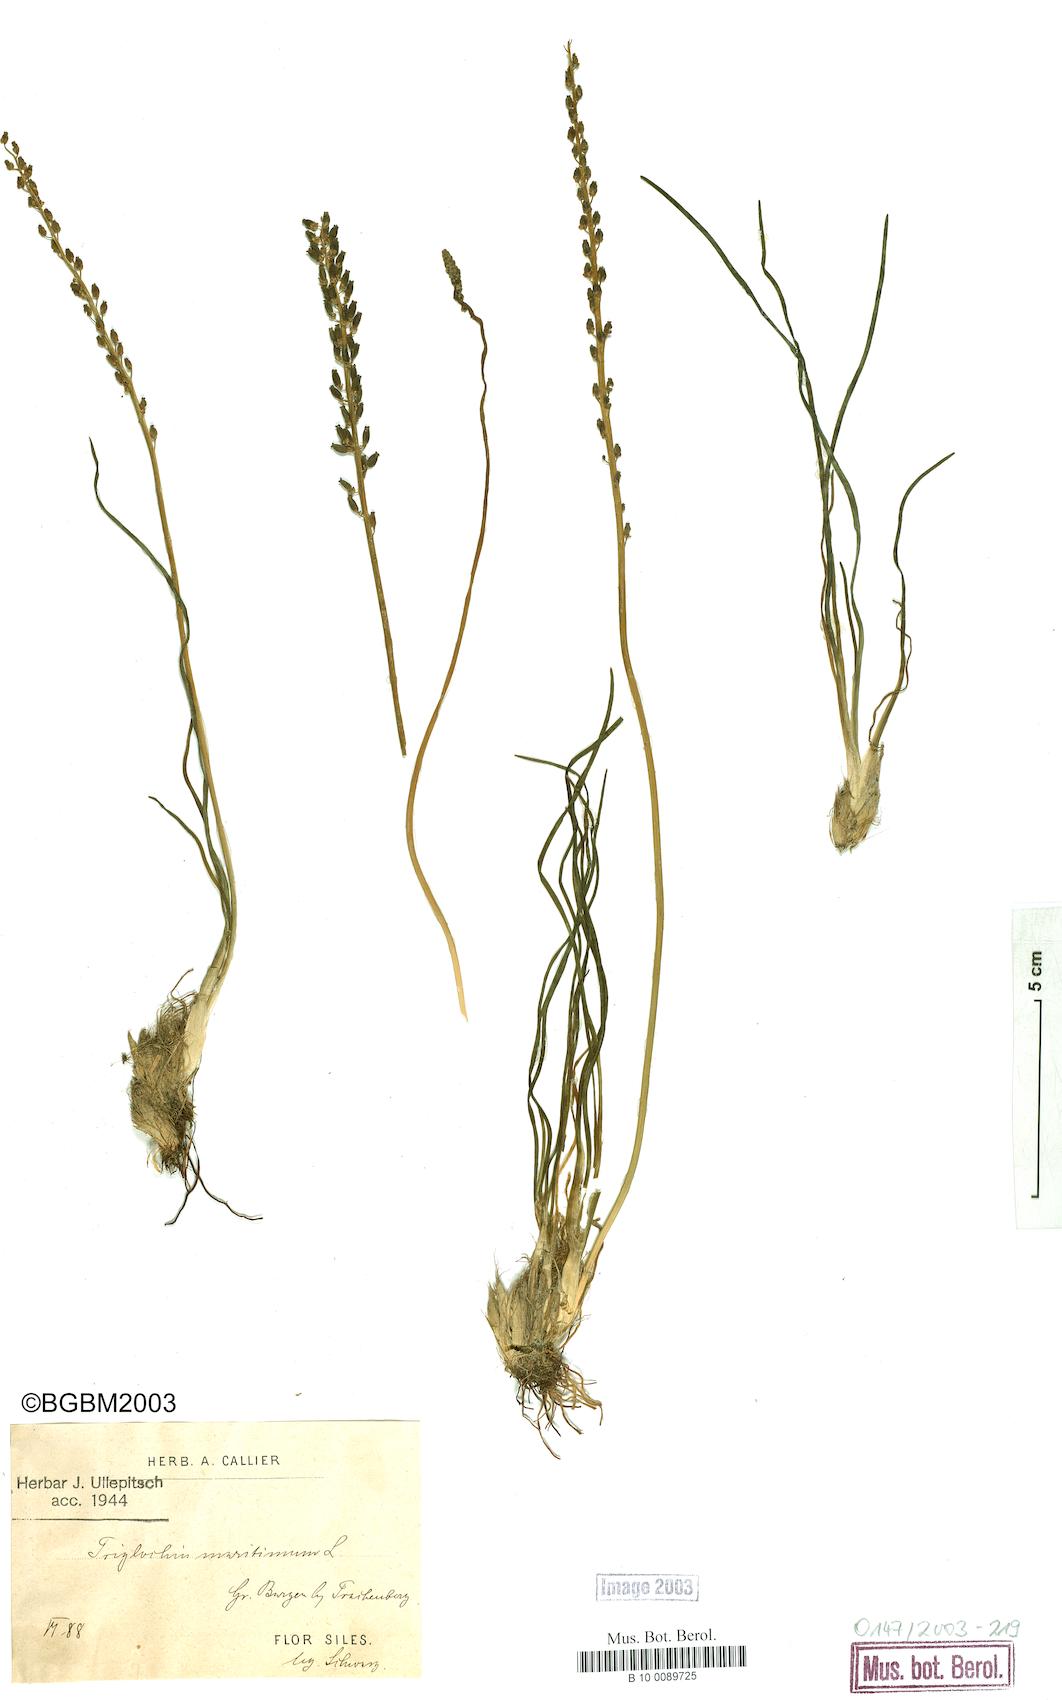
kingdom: Plantae
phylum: Tracheophyta
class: Liliopsida
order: Alismatales
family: Juncaginaceae
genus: Triglochin
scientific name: Triglochin maritima
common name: Sea arrowgrass
